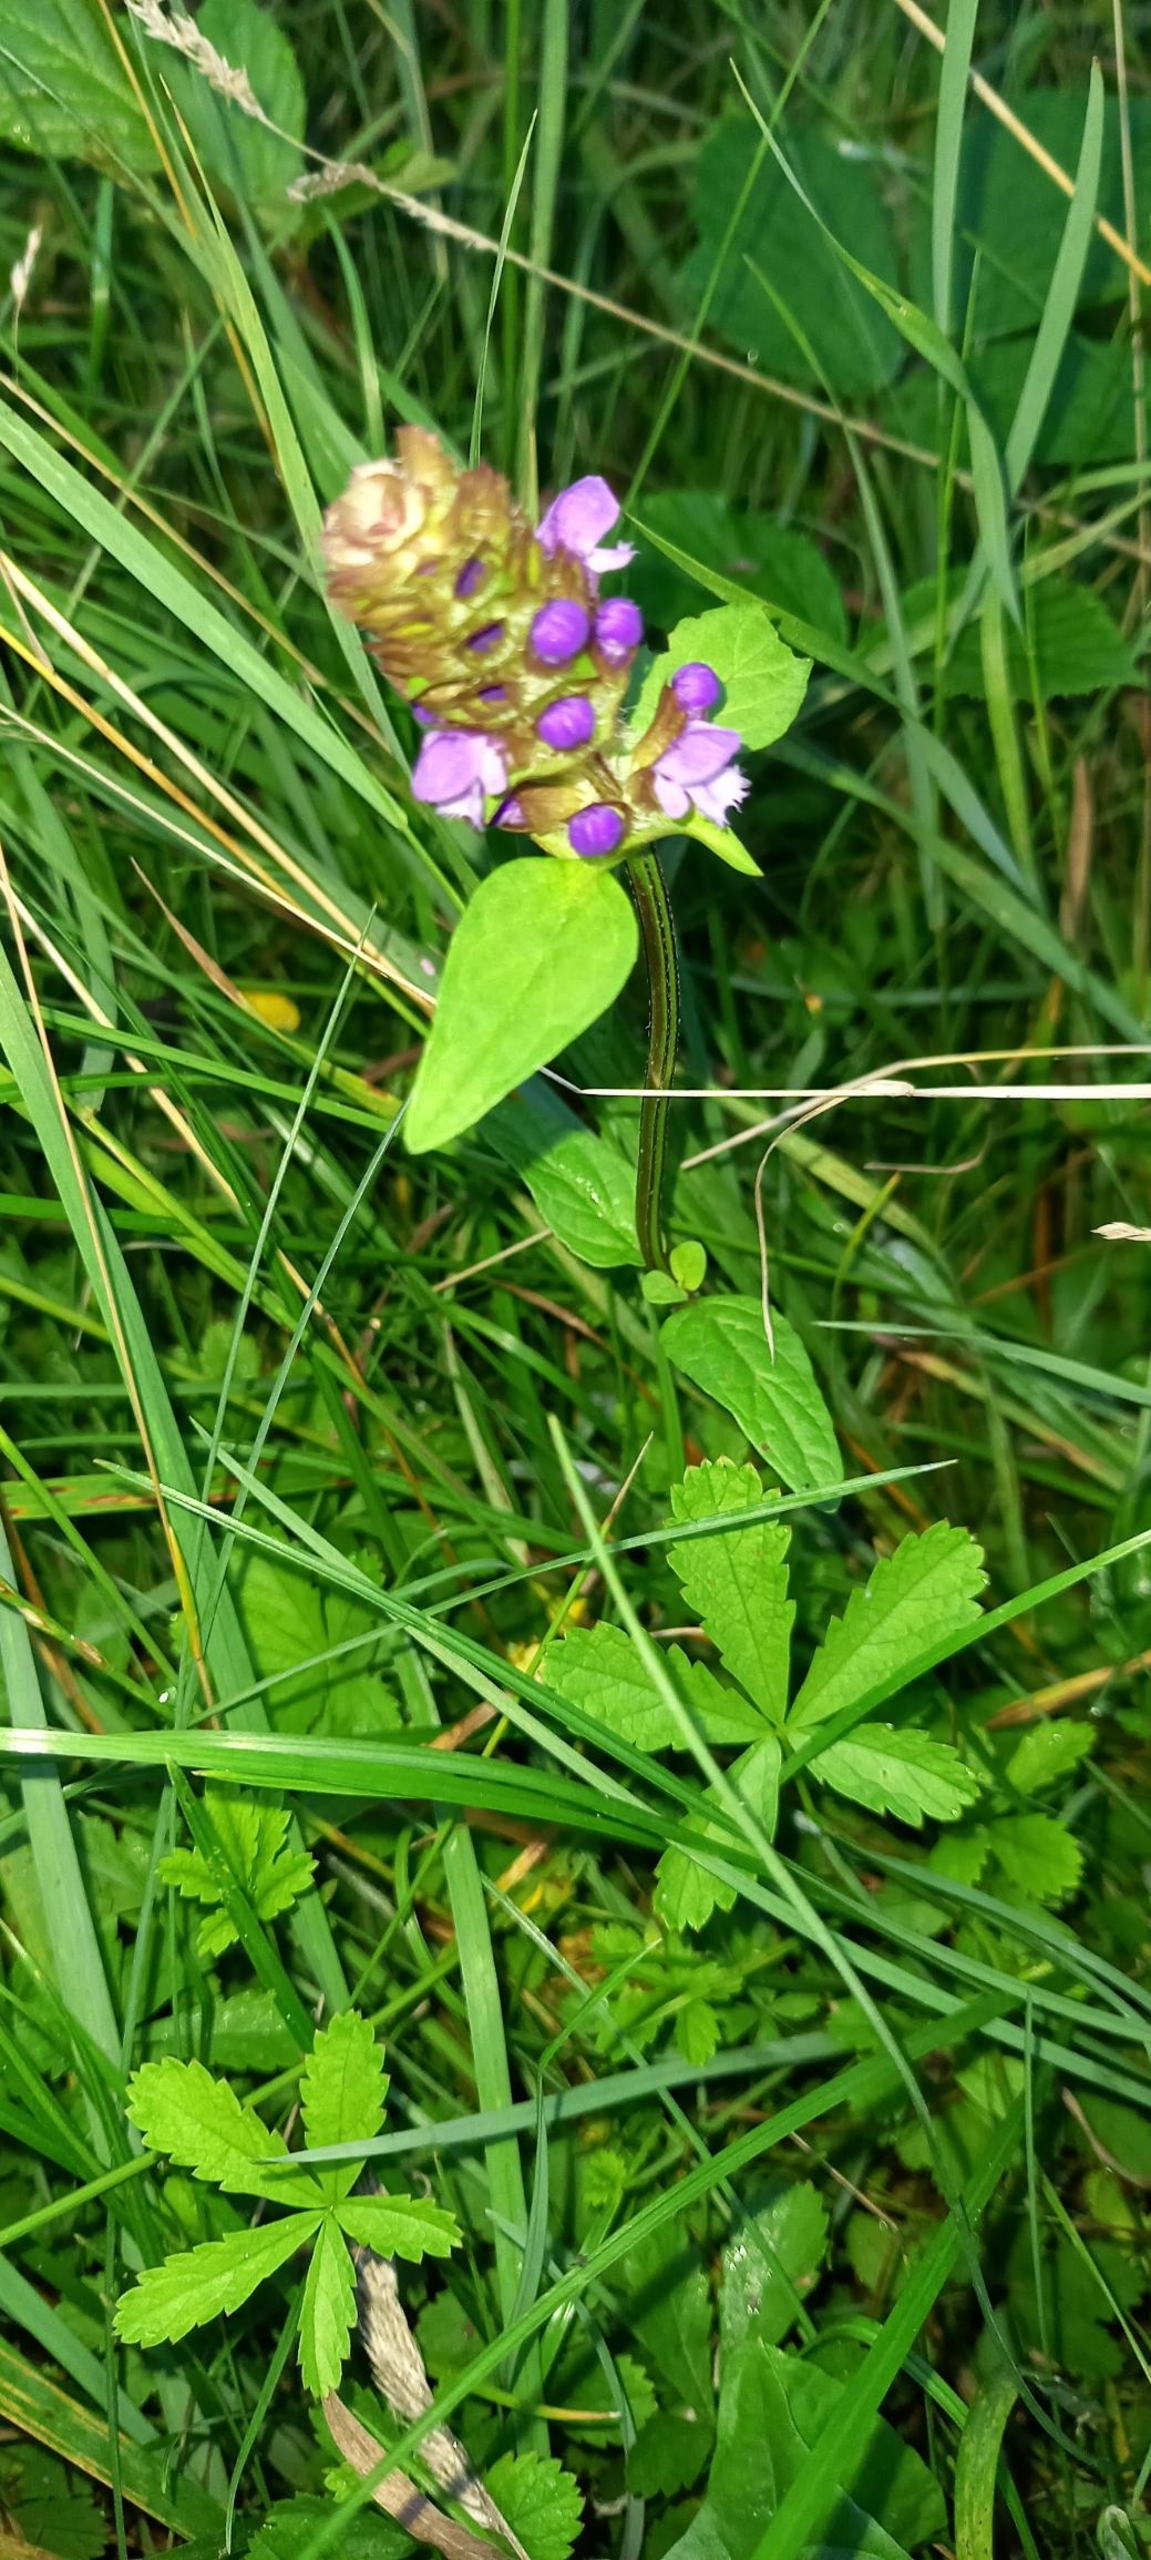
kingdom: Plantae
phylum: Tracheophyta
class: Magnoliopsida
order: Lamiales
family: Lamiaceae
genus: Prunella
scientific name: Prunella vulgaris
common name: Almindelig brunelle
